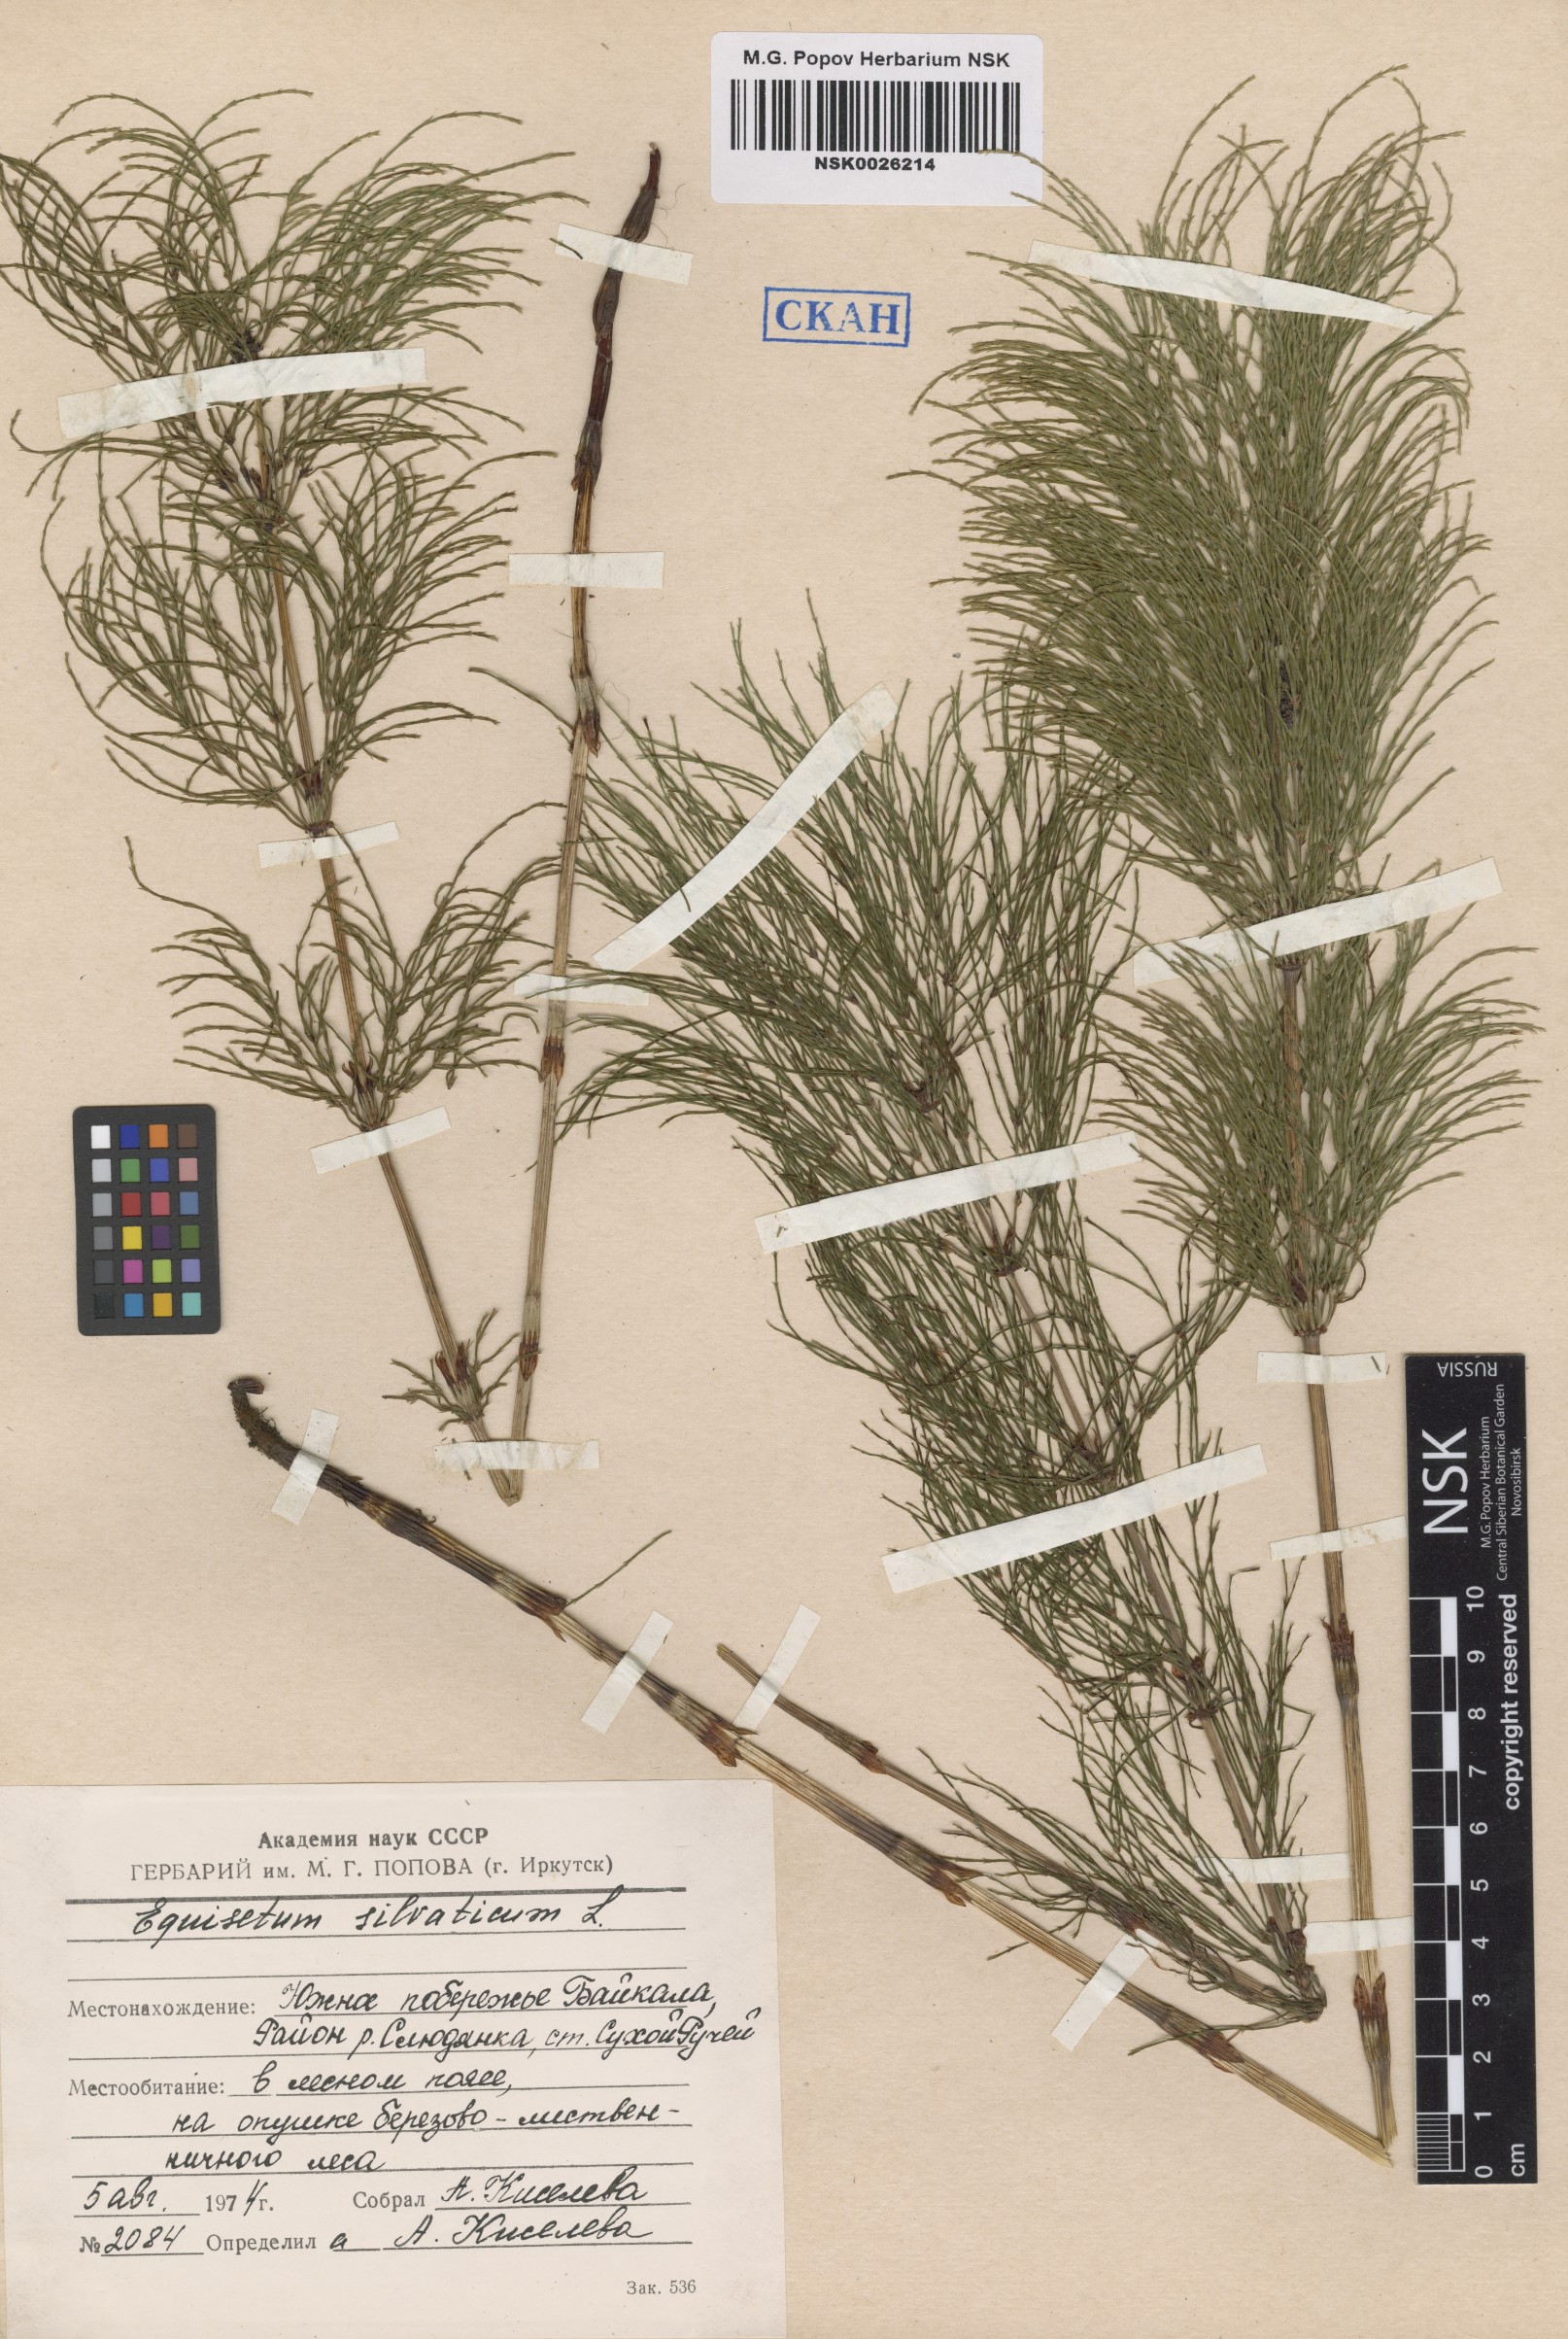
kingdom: Plantae
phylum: Tracheophyta
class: Polypodiopsida
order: Equisetales
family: Equisetaceae
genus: Equisetum
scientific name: Equisetum sylvaticum
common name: Wood horsetail
